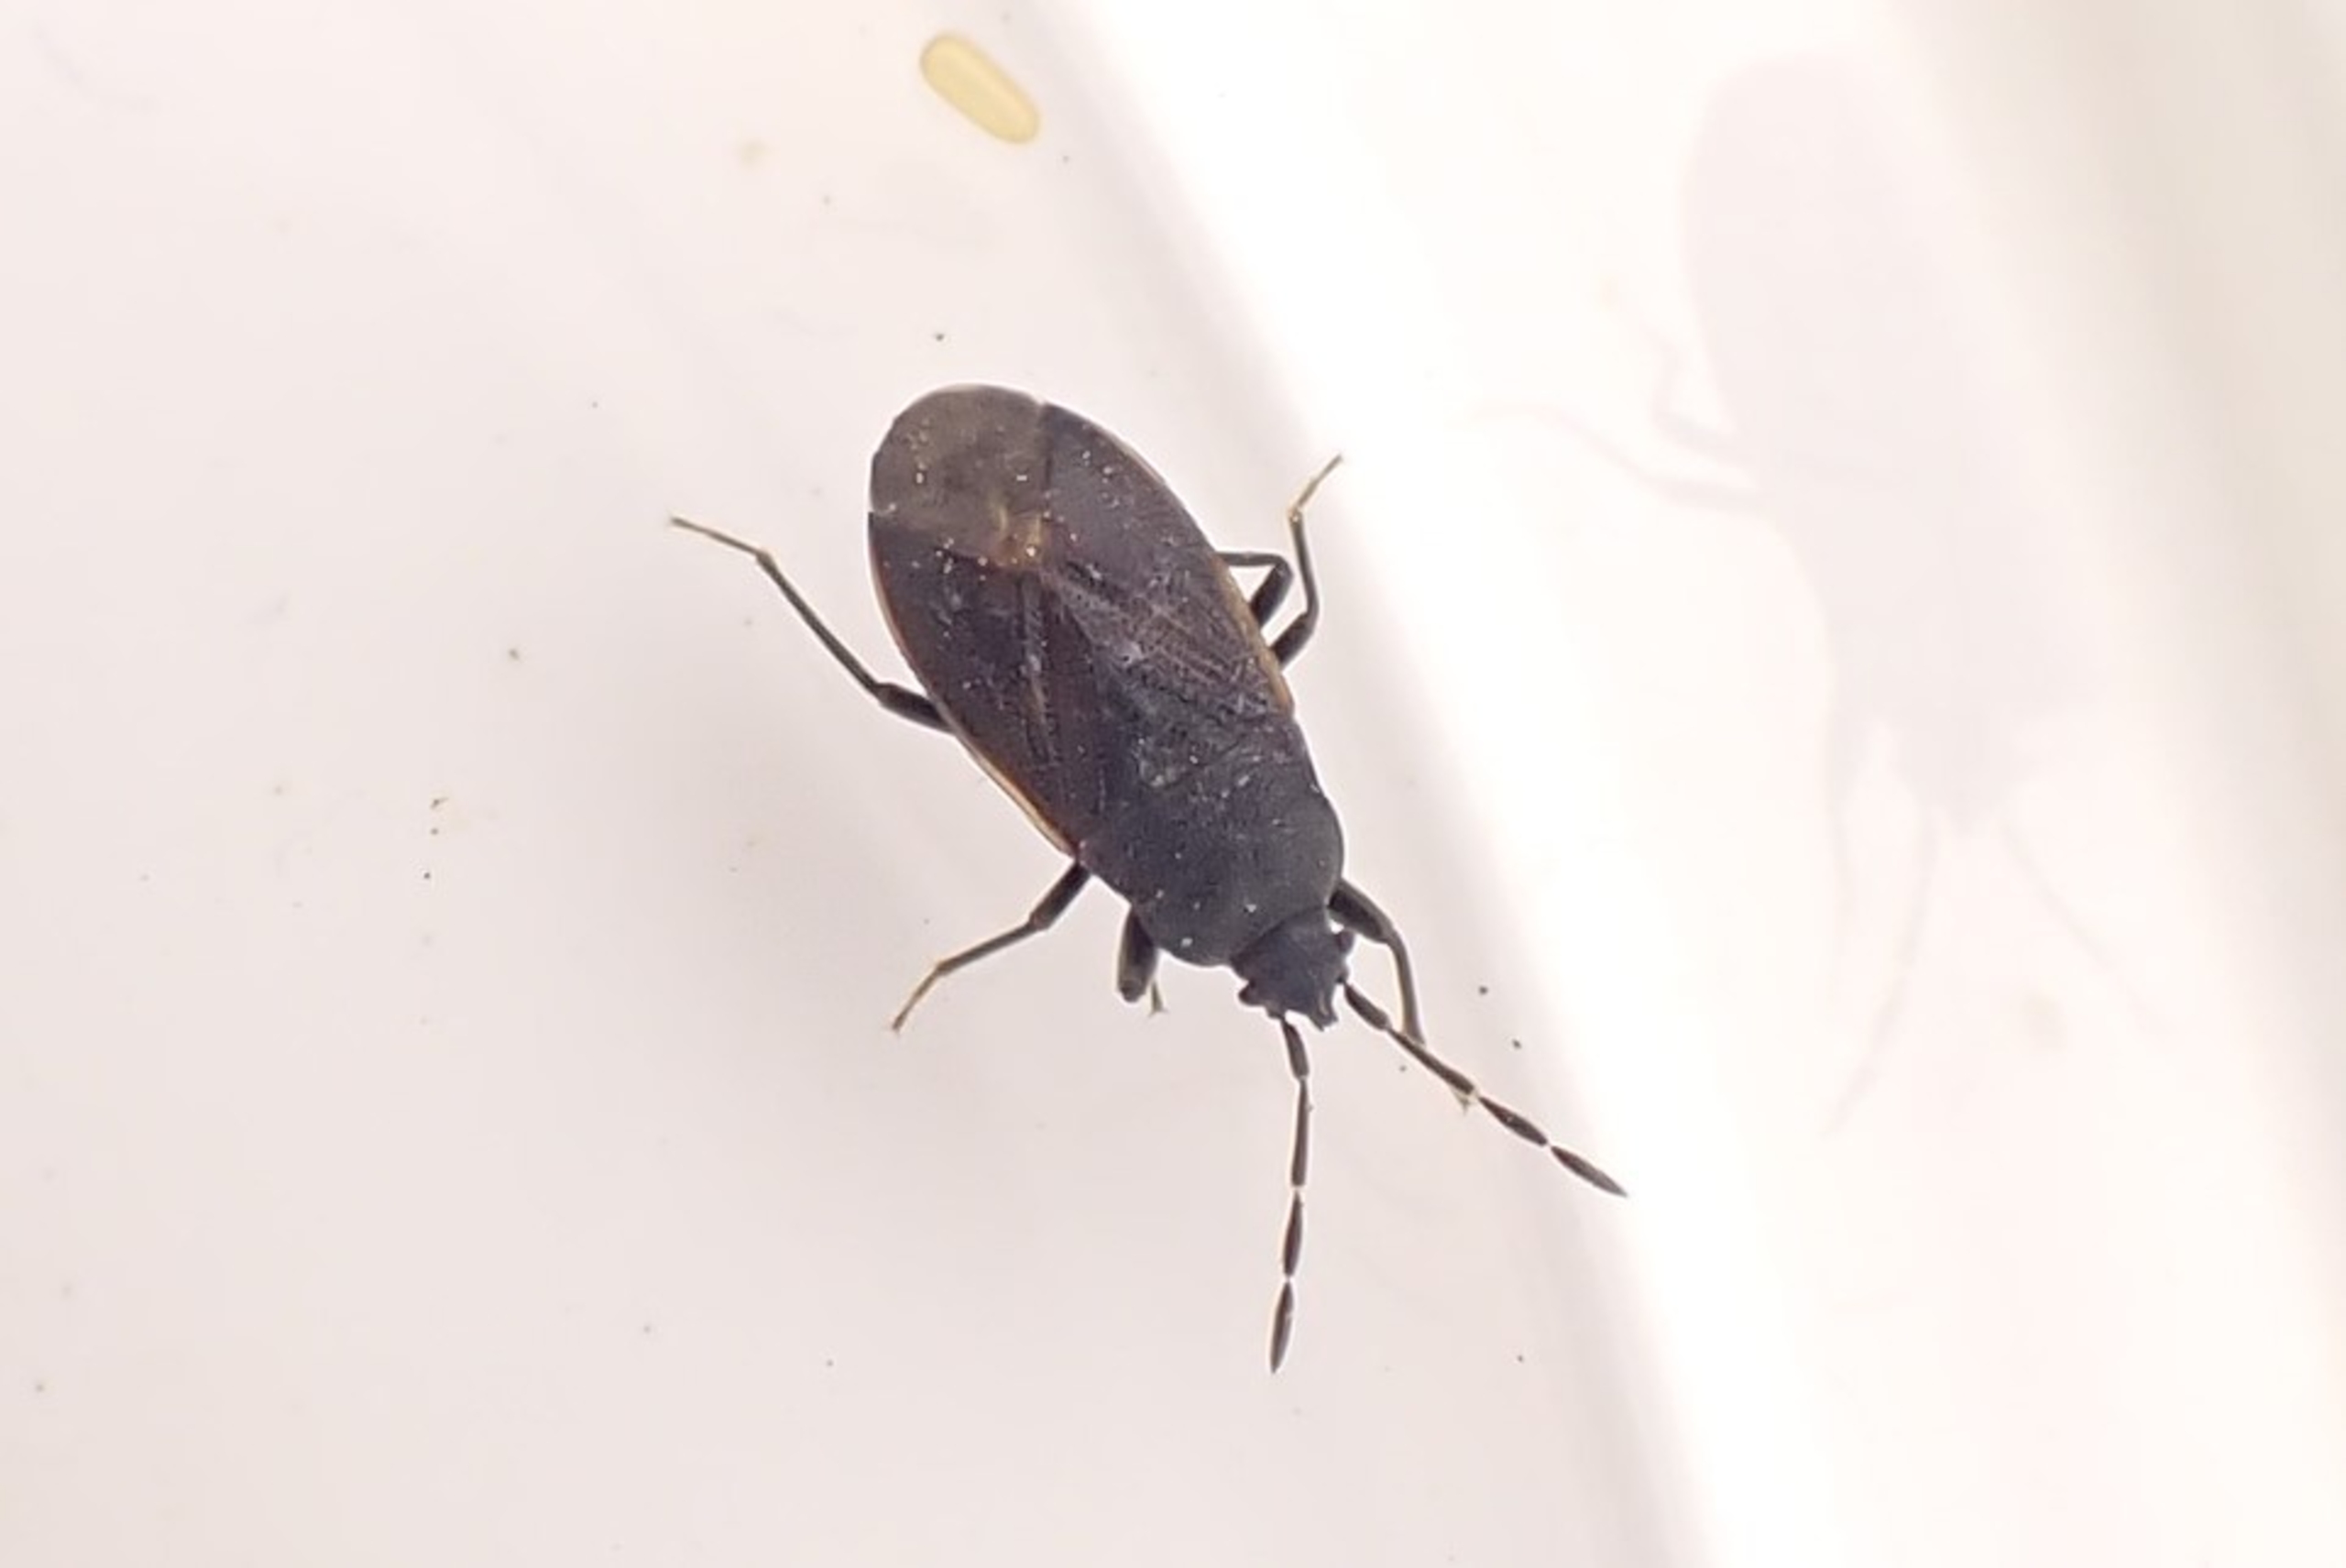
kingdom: Animalia
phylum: Arthropoda
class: Insecta
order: Hemiptera
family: Rhyparochromidae
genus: Drymus
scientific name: Drymus sylvaticus
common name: Skovfrøtæge
